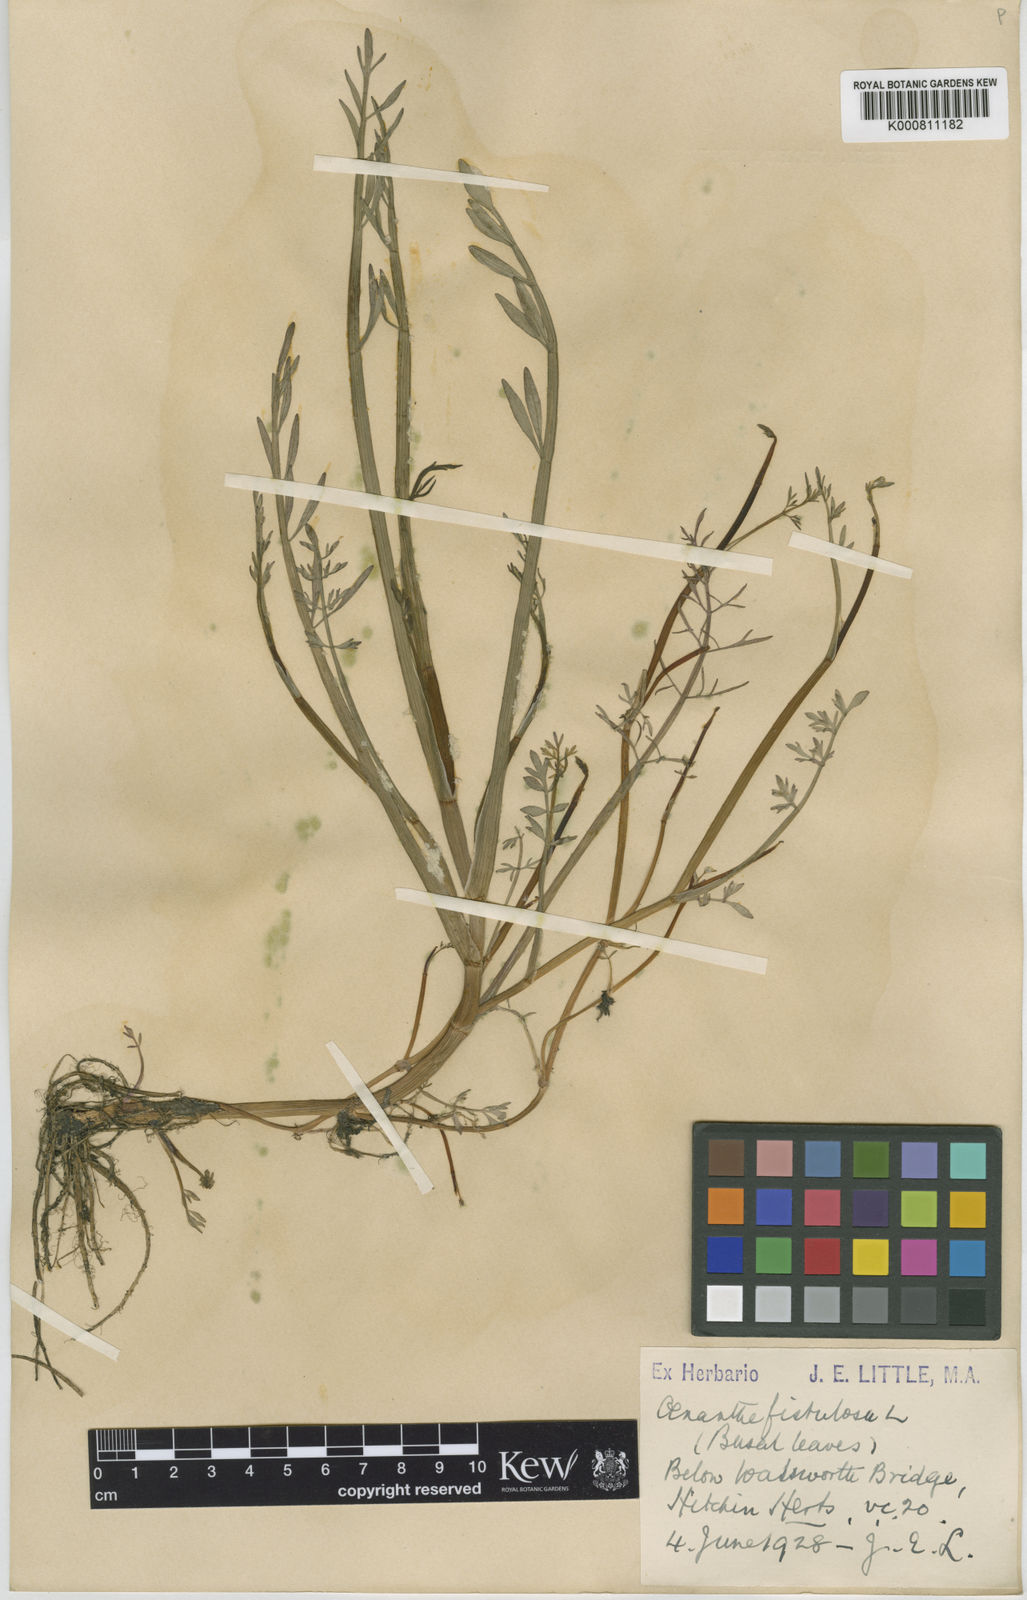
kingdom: Plantae
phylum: Tracheophyta
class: Magnoliopsida
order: Apiales
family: Apiaceae
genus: Oenanthe
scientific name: Oenanthe fistulosa
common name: Tubular water-dropwort
